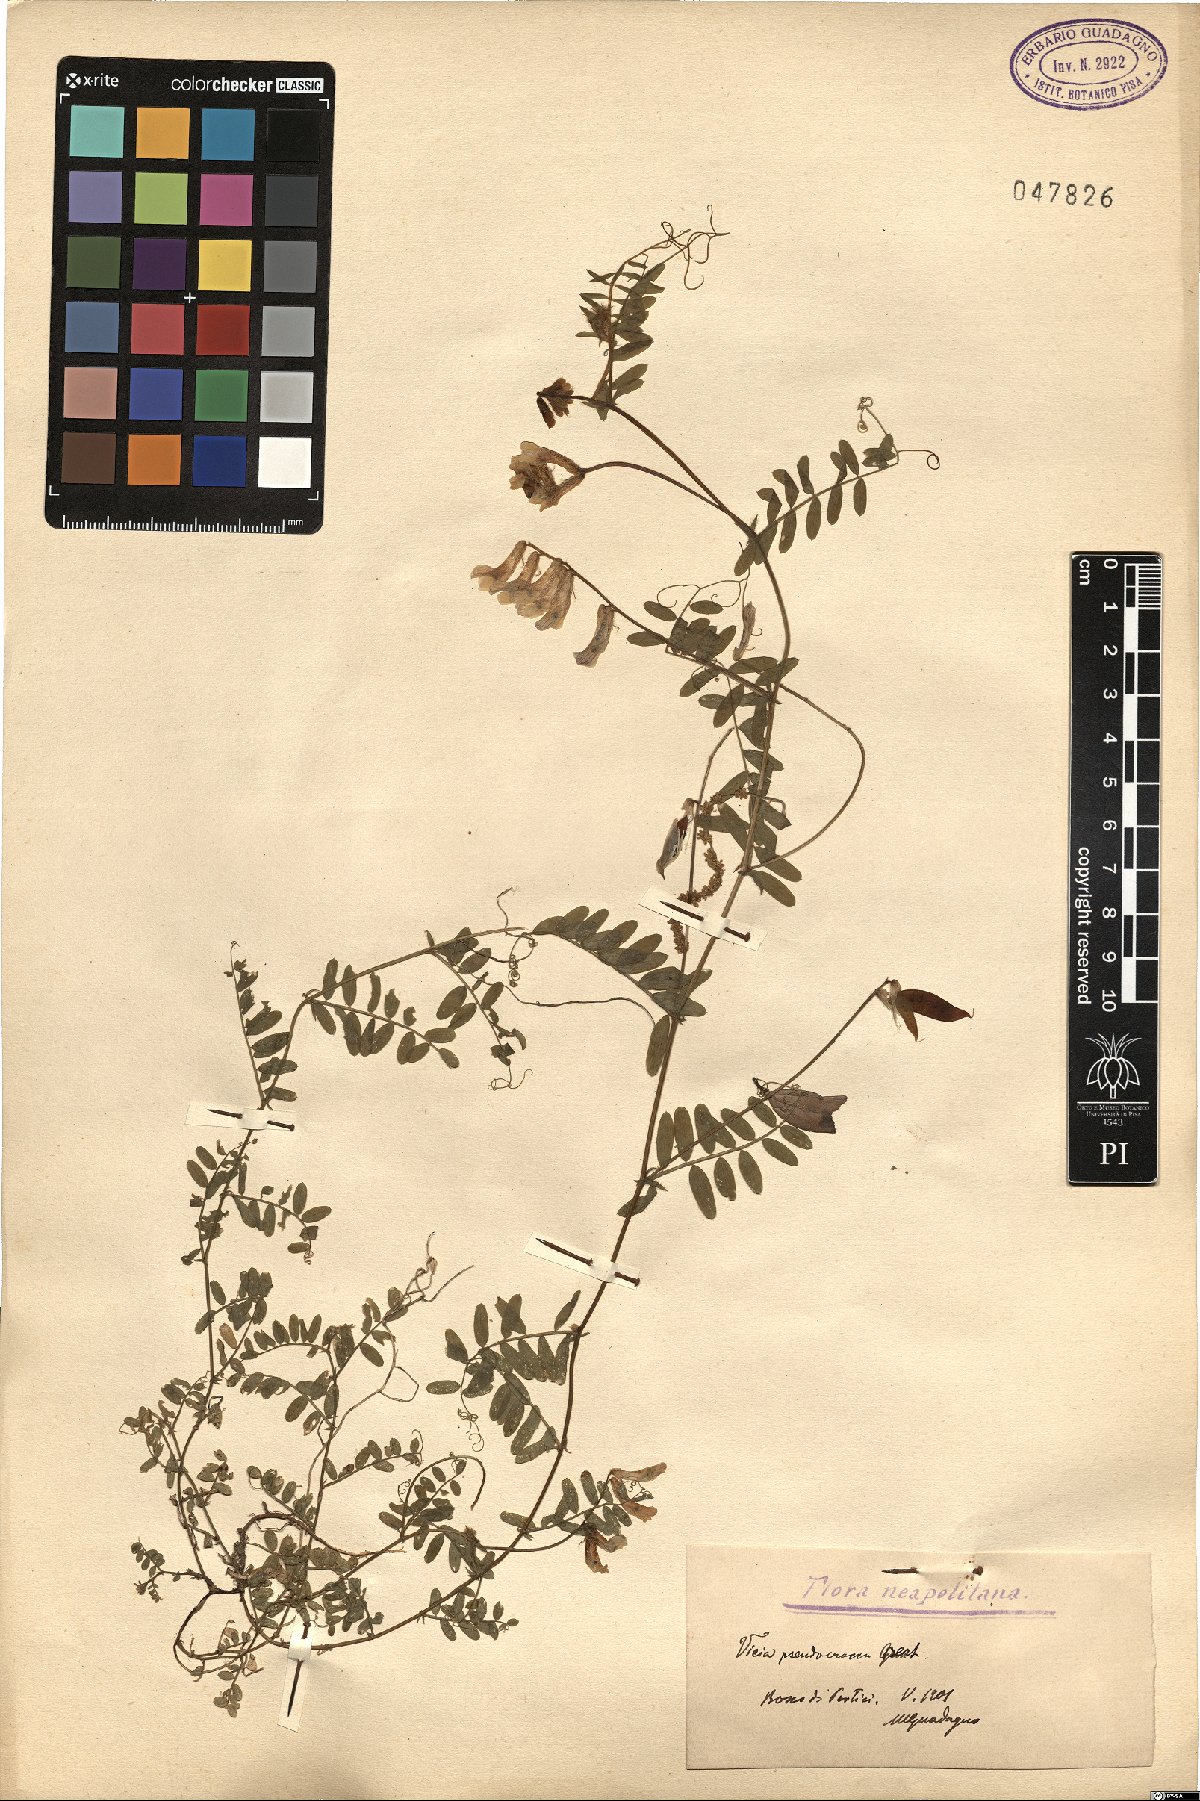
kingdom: Plantae
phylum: Tracheophyta
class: Magnoliopsida
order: Fabales
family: Fabaceae
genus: Vicia
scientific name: Vicia villosa
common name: Fodder vetch
